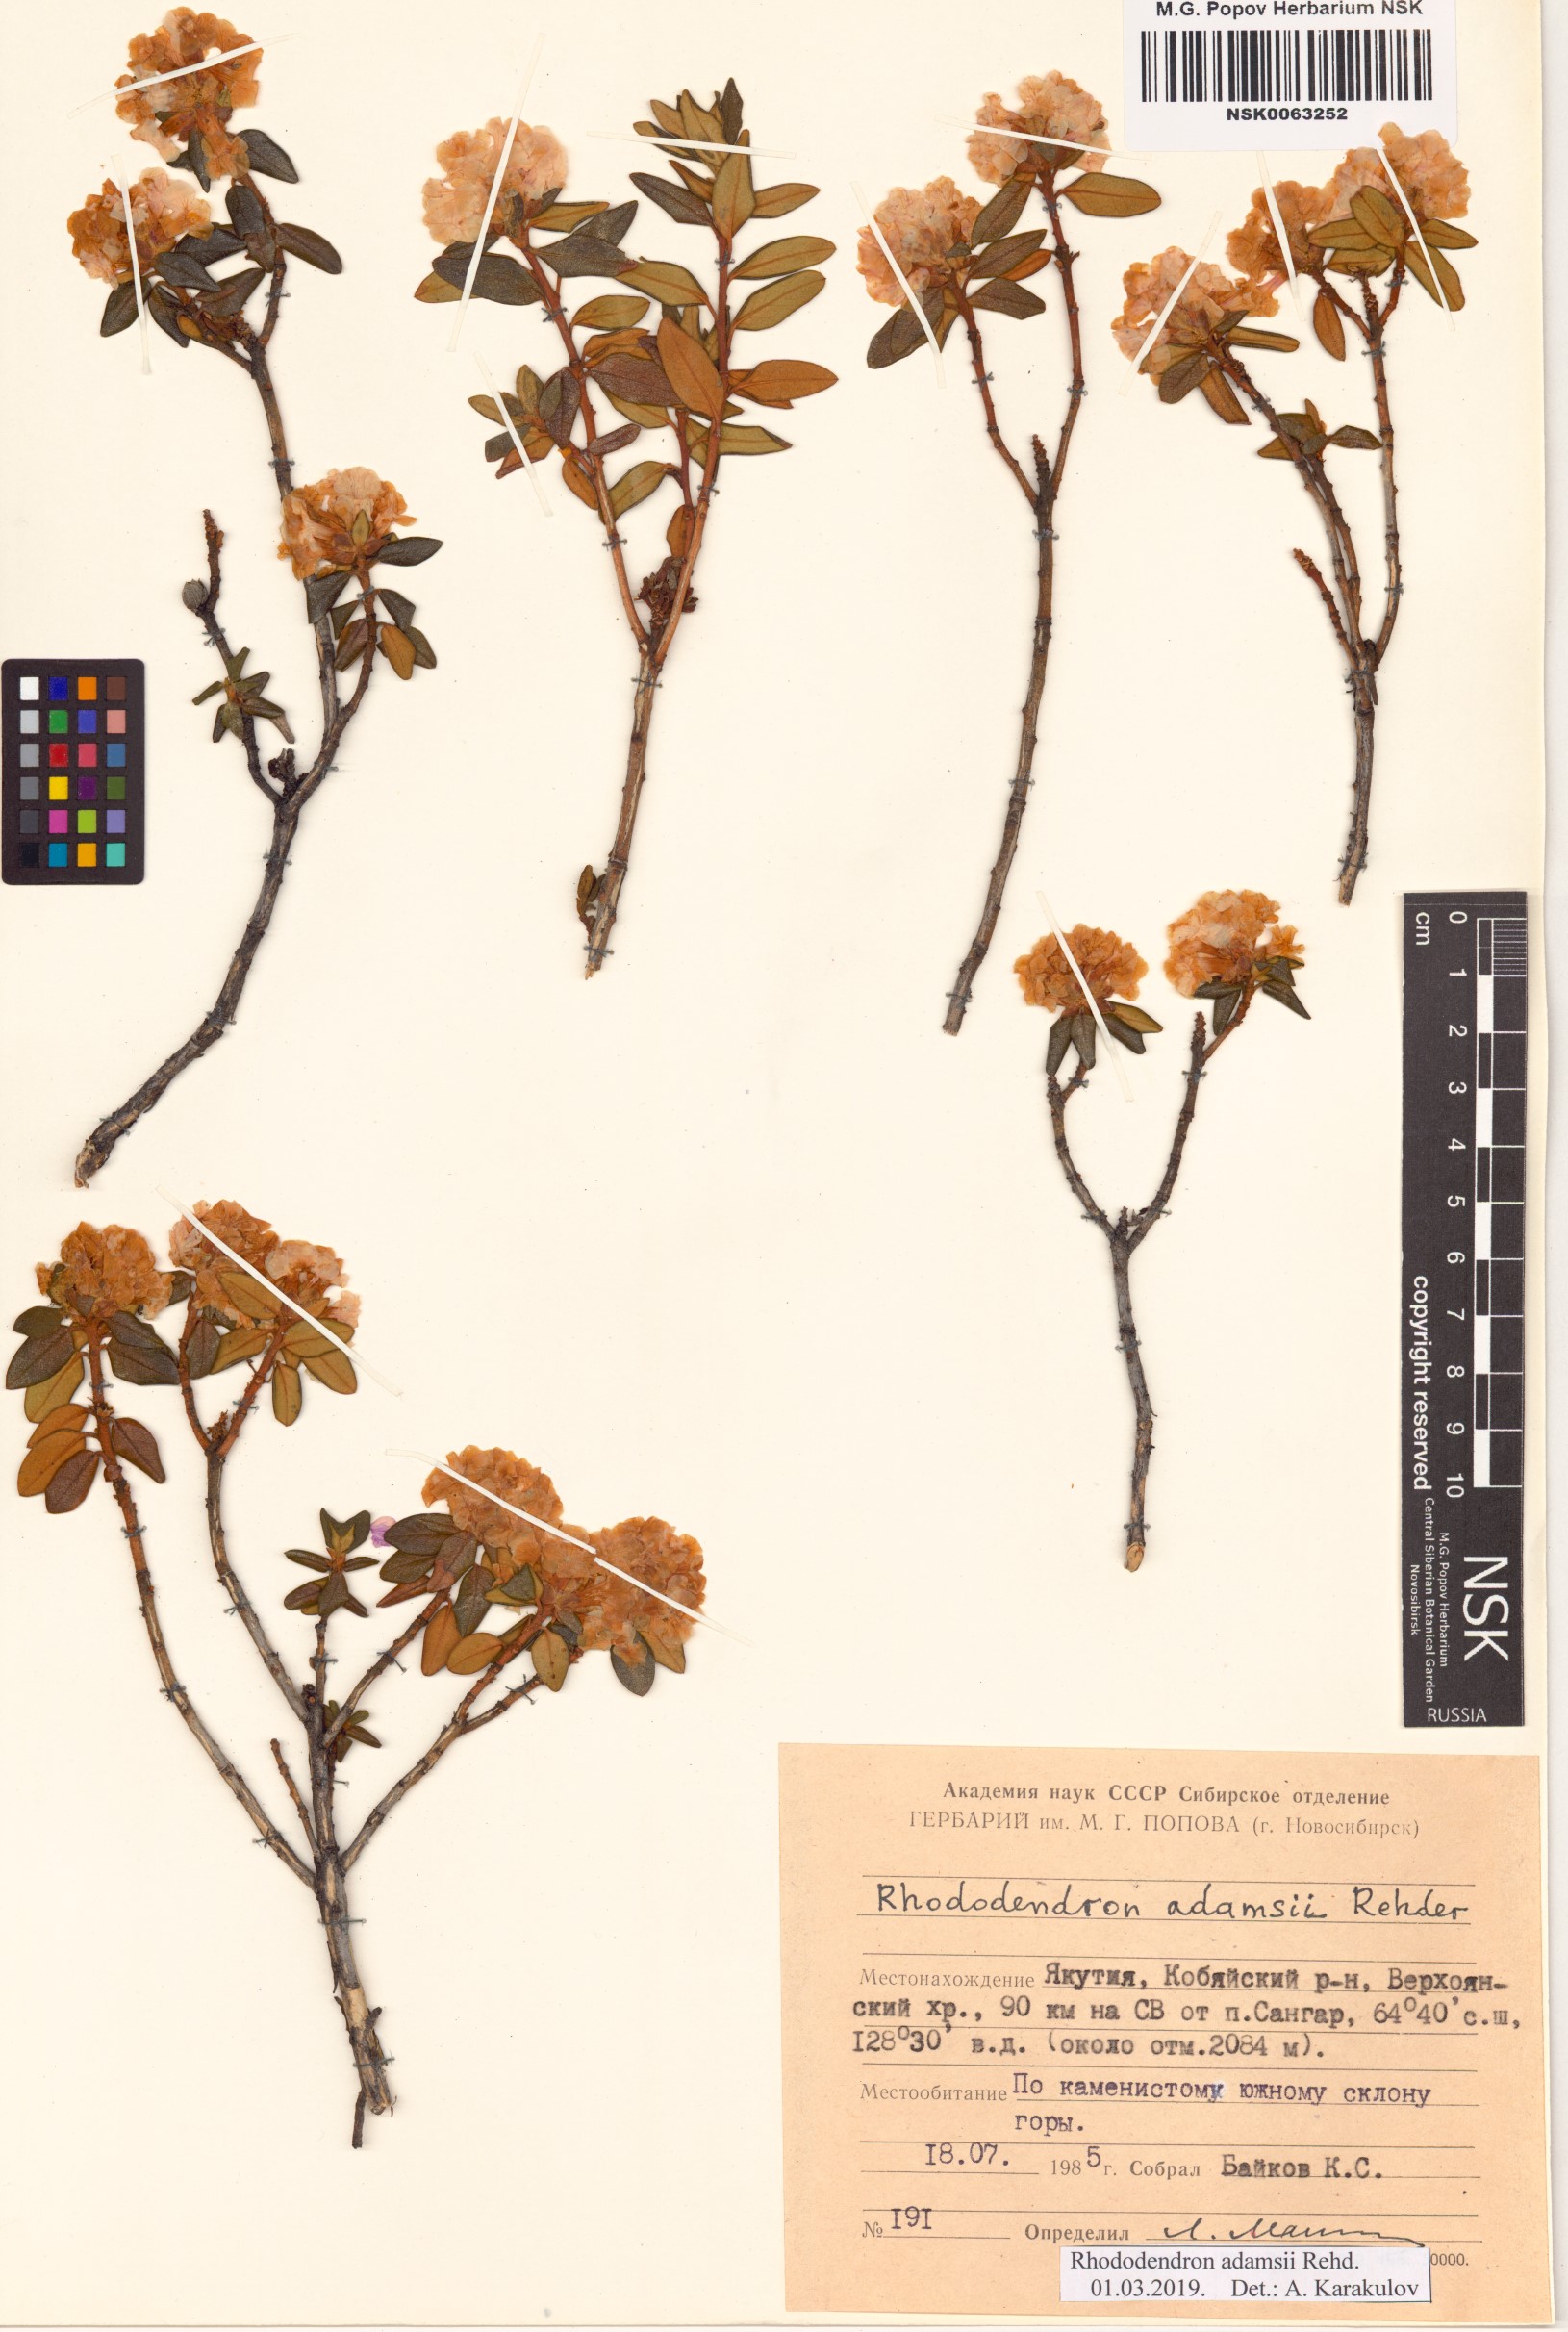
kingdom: Plantae
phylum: Tracheophyta
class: Magnoliopsida
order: Ericales
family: Ericaceae
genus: Rhododendron
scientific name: Rhododendron adamsii
